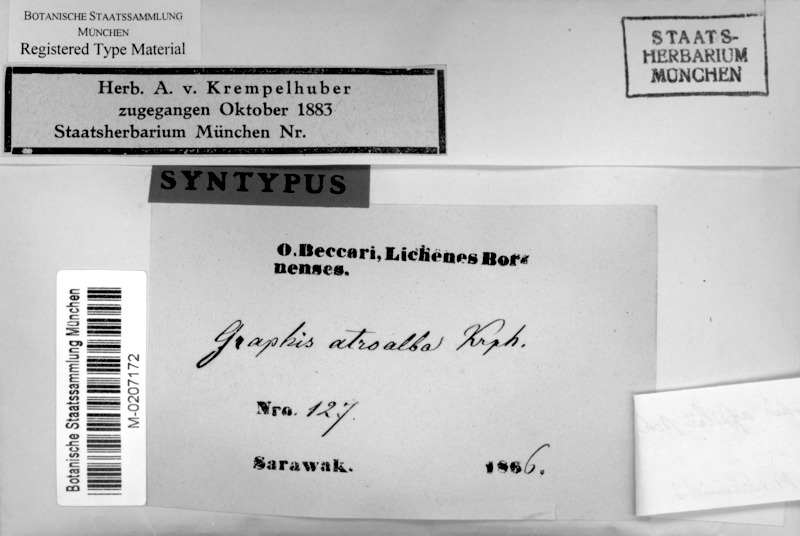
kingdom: Fungi
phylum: Ascomycota
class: Lecanoromycetes
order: Ostropales
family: Graphidaceae
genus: Dyplolabia
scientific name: Dyplolabia afzelii
